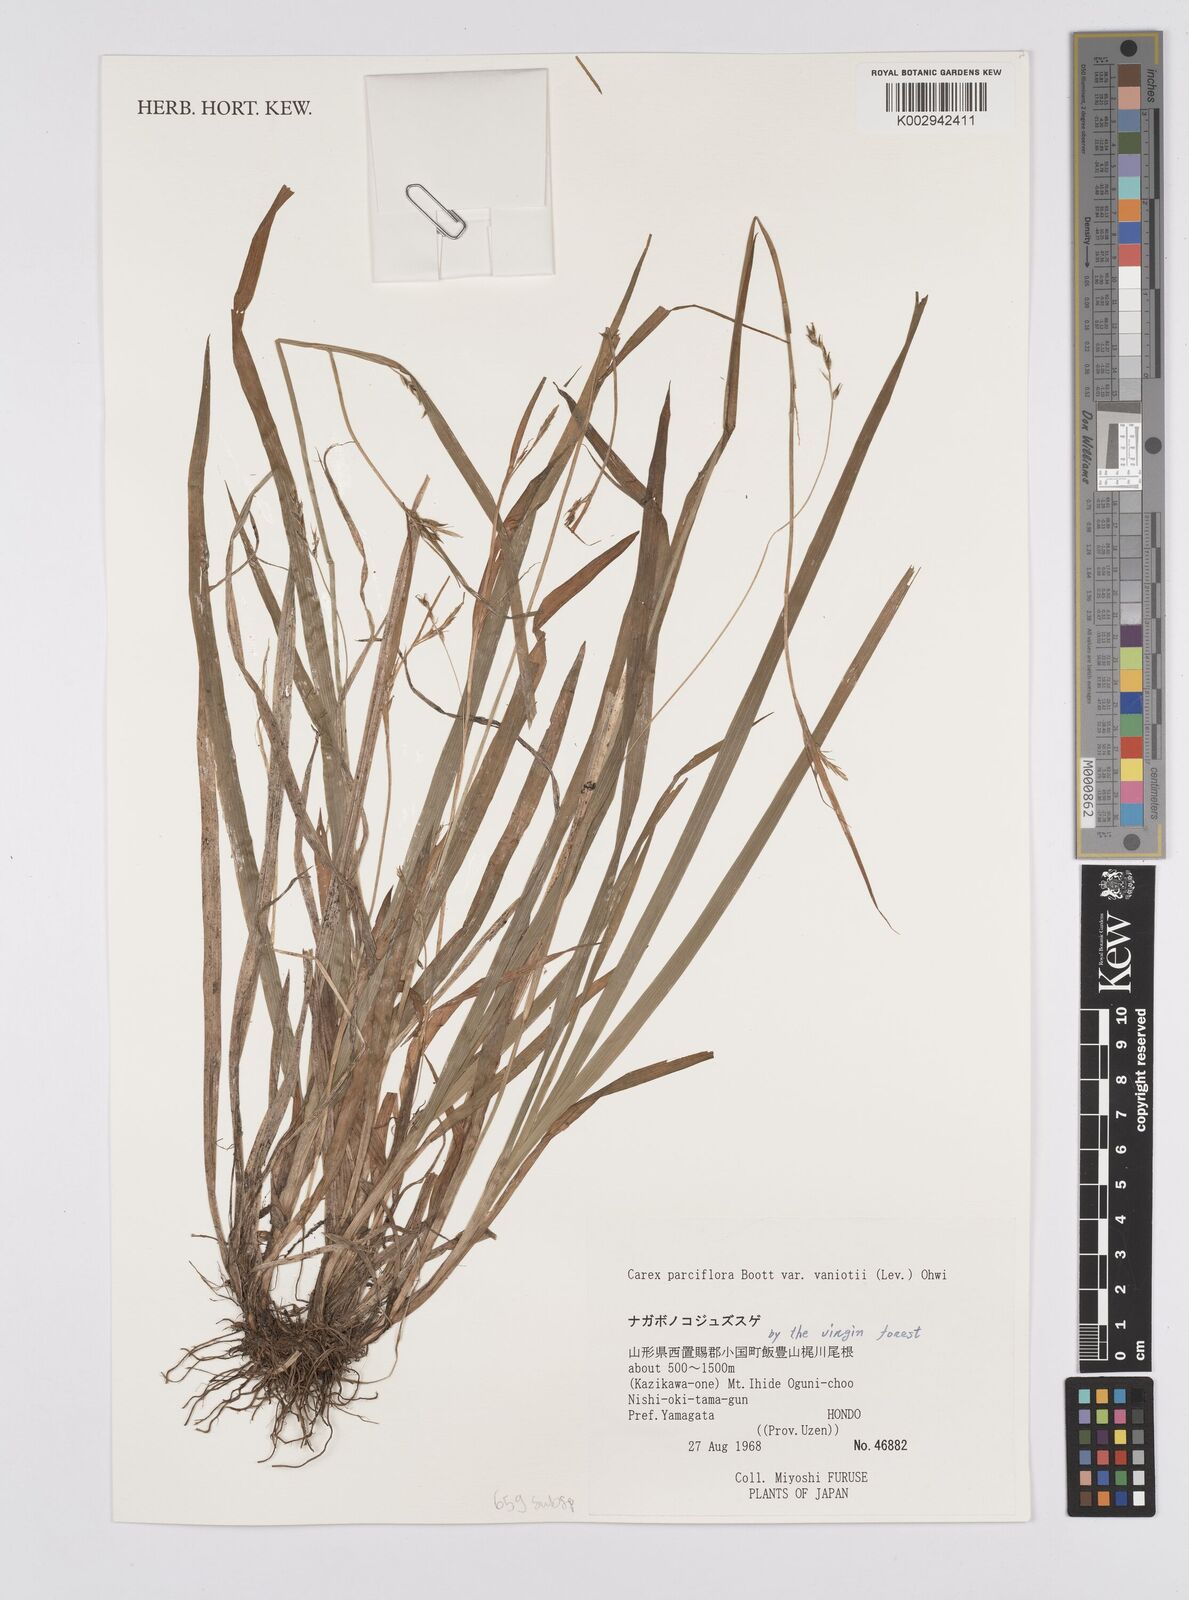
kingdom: Plantae
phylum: Tracheophyta
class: Liliopsida
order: Poales
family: Cyperaceae
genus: Carex
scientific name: Carex parciflora
